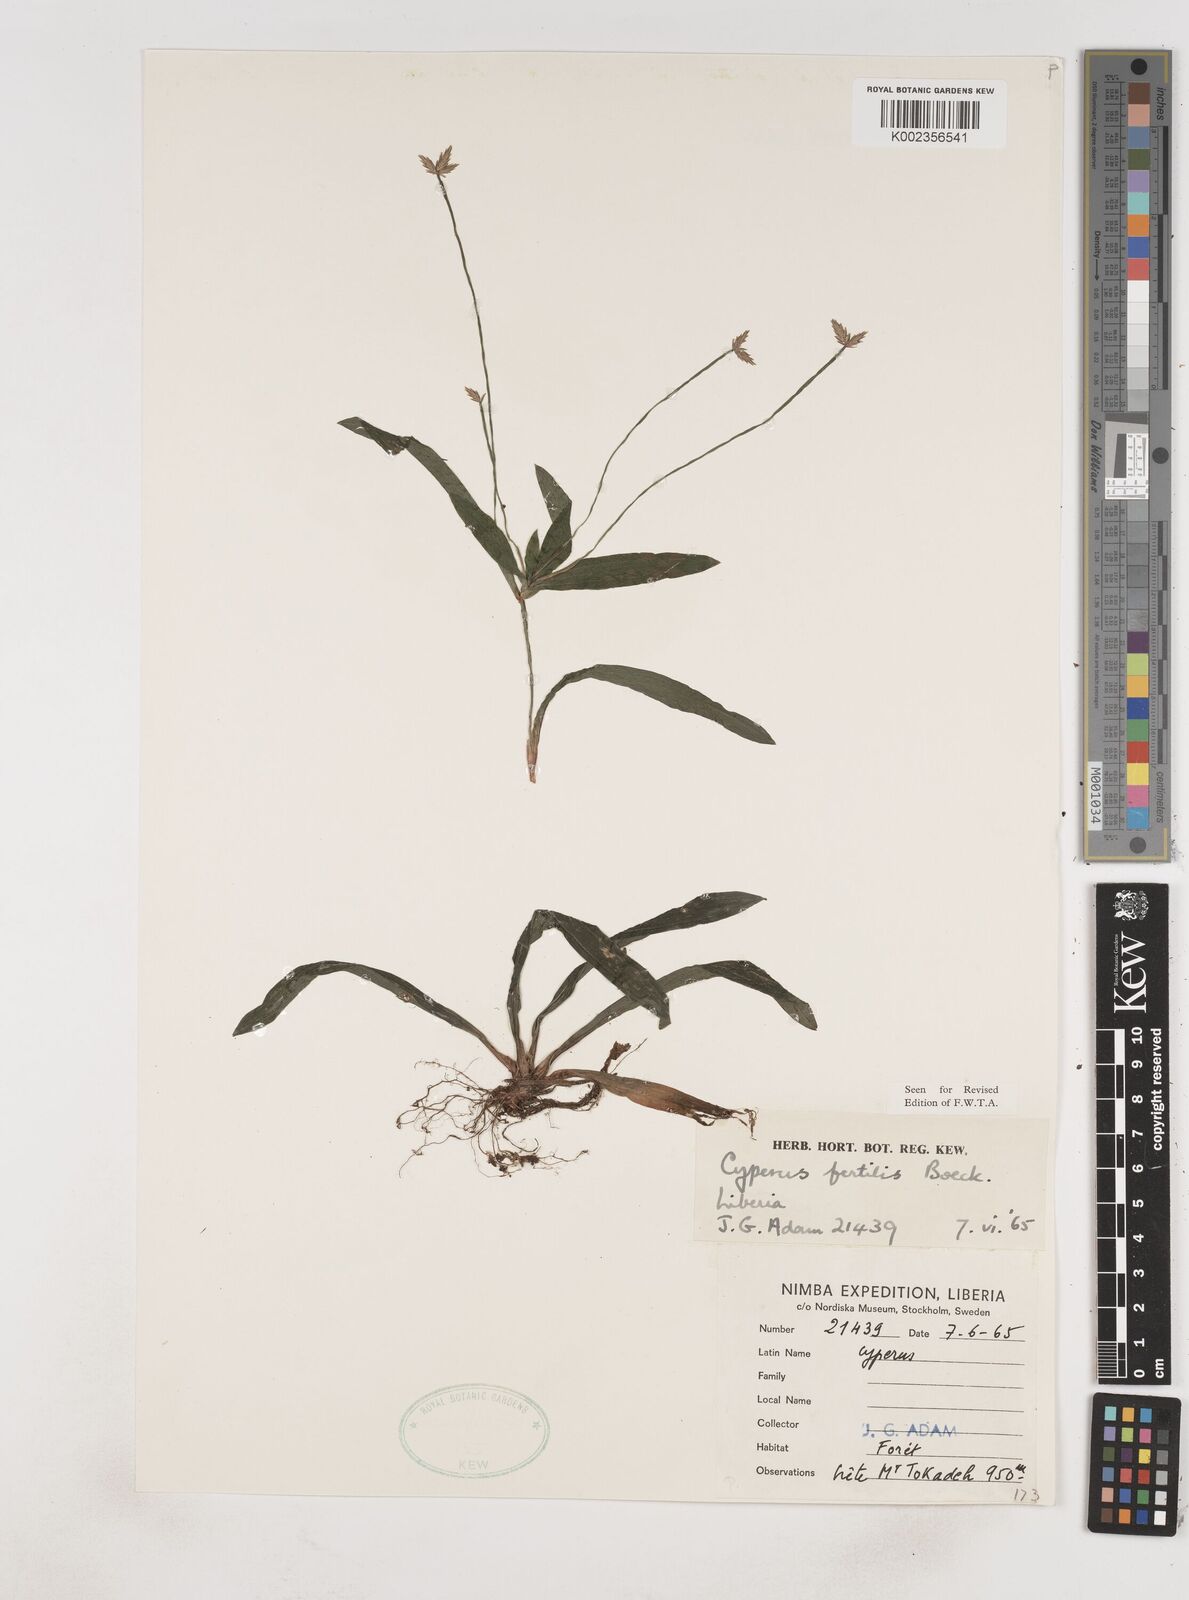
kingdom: Plantae
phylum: Tracheophyta
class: Liliopsida
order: Poales
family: Cyperaceae
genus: Cyperus
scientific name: Cyperus fertilis
